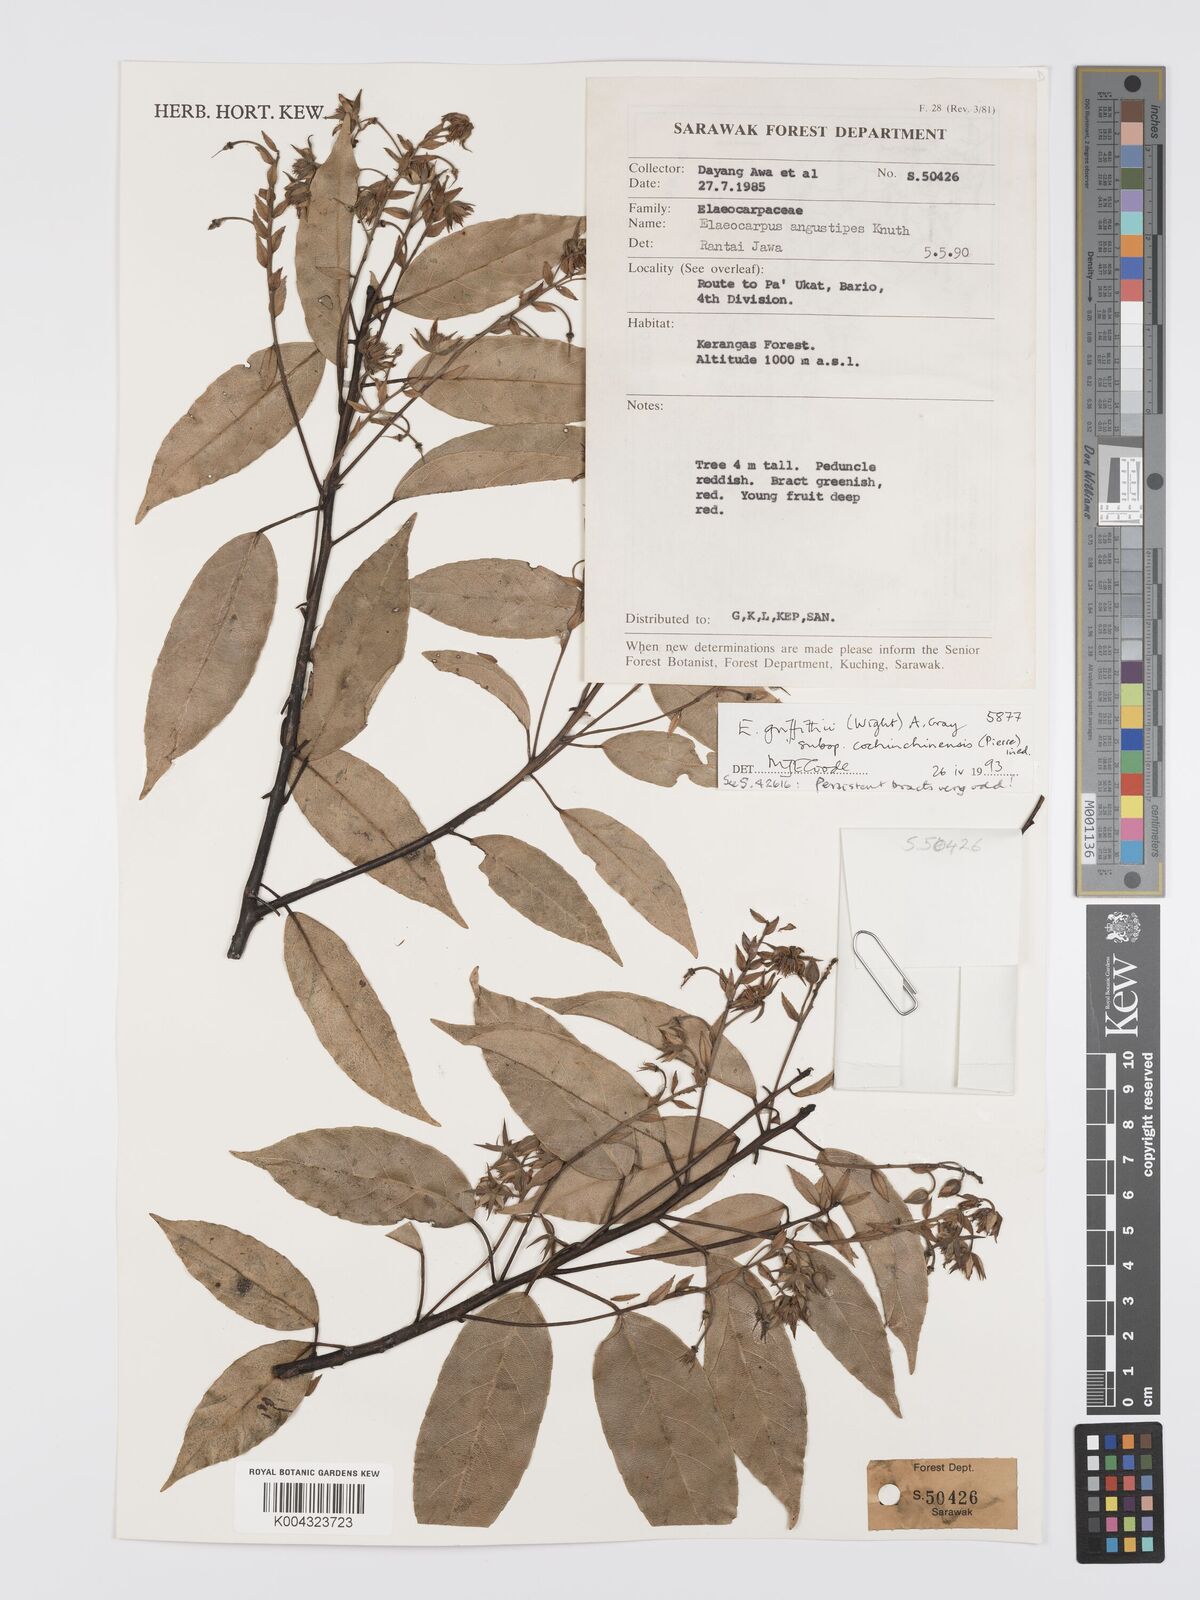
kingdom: Plantae
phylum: Tracheophyta
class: Magnoliopsida
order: Oxalidales
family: Elaeocarpaceae
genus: Elaeocarpus
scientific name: Elaeocarpus griffithii
